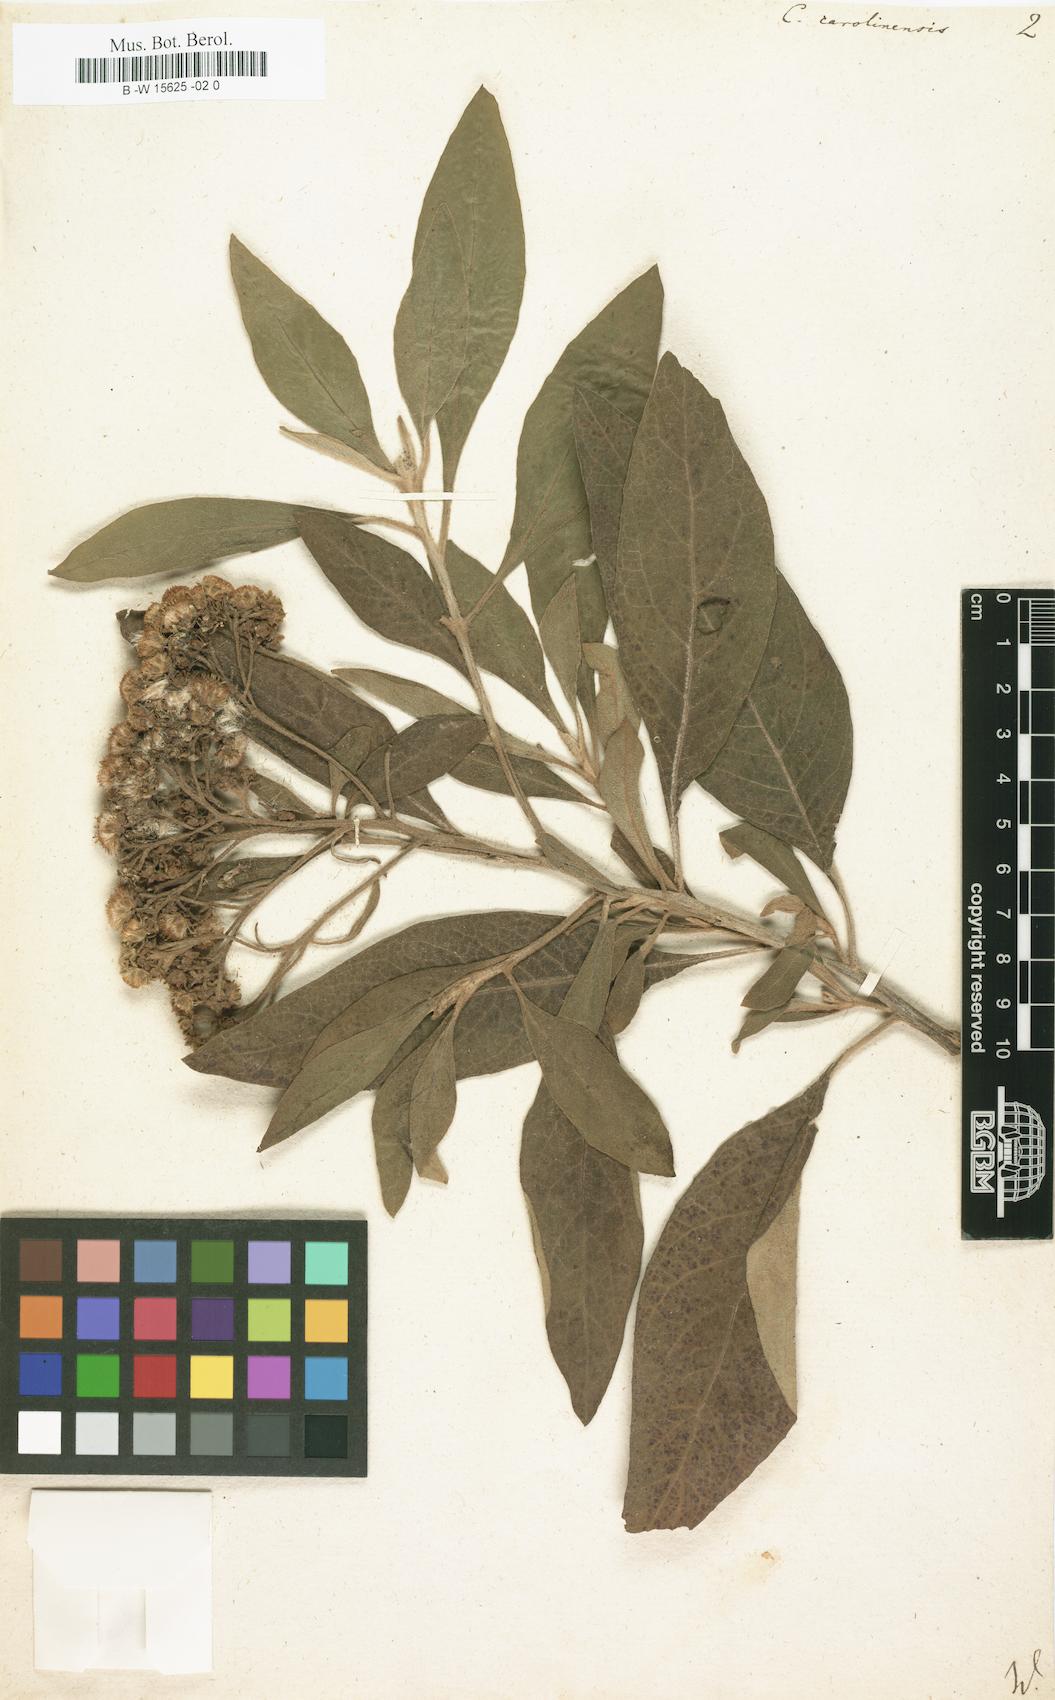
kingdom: Plantae
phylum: Tracheophyta
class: Magnoliopsida
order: Asterales
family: Asteraceae
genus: Pluchea
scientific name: Pluchea carolinensis
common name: Marsh fleabane
